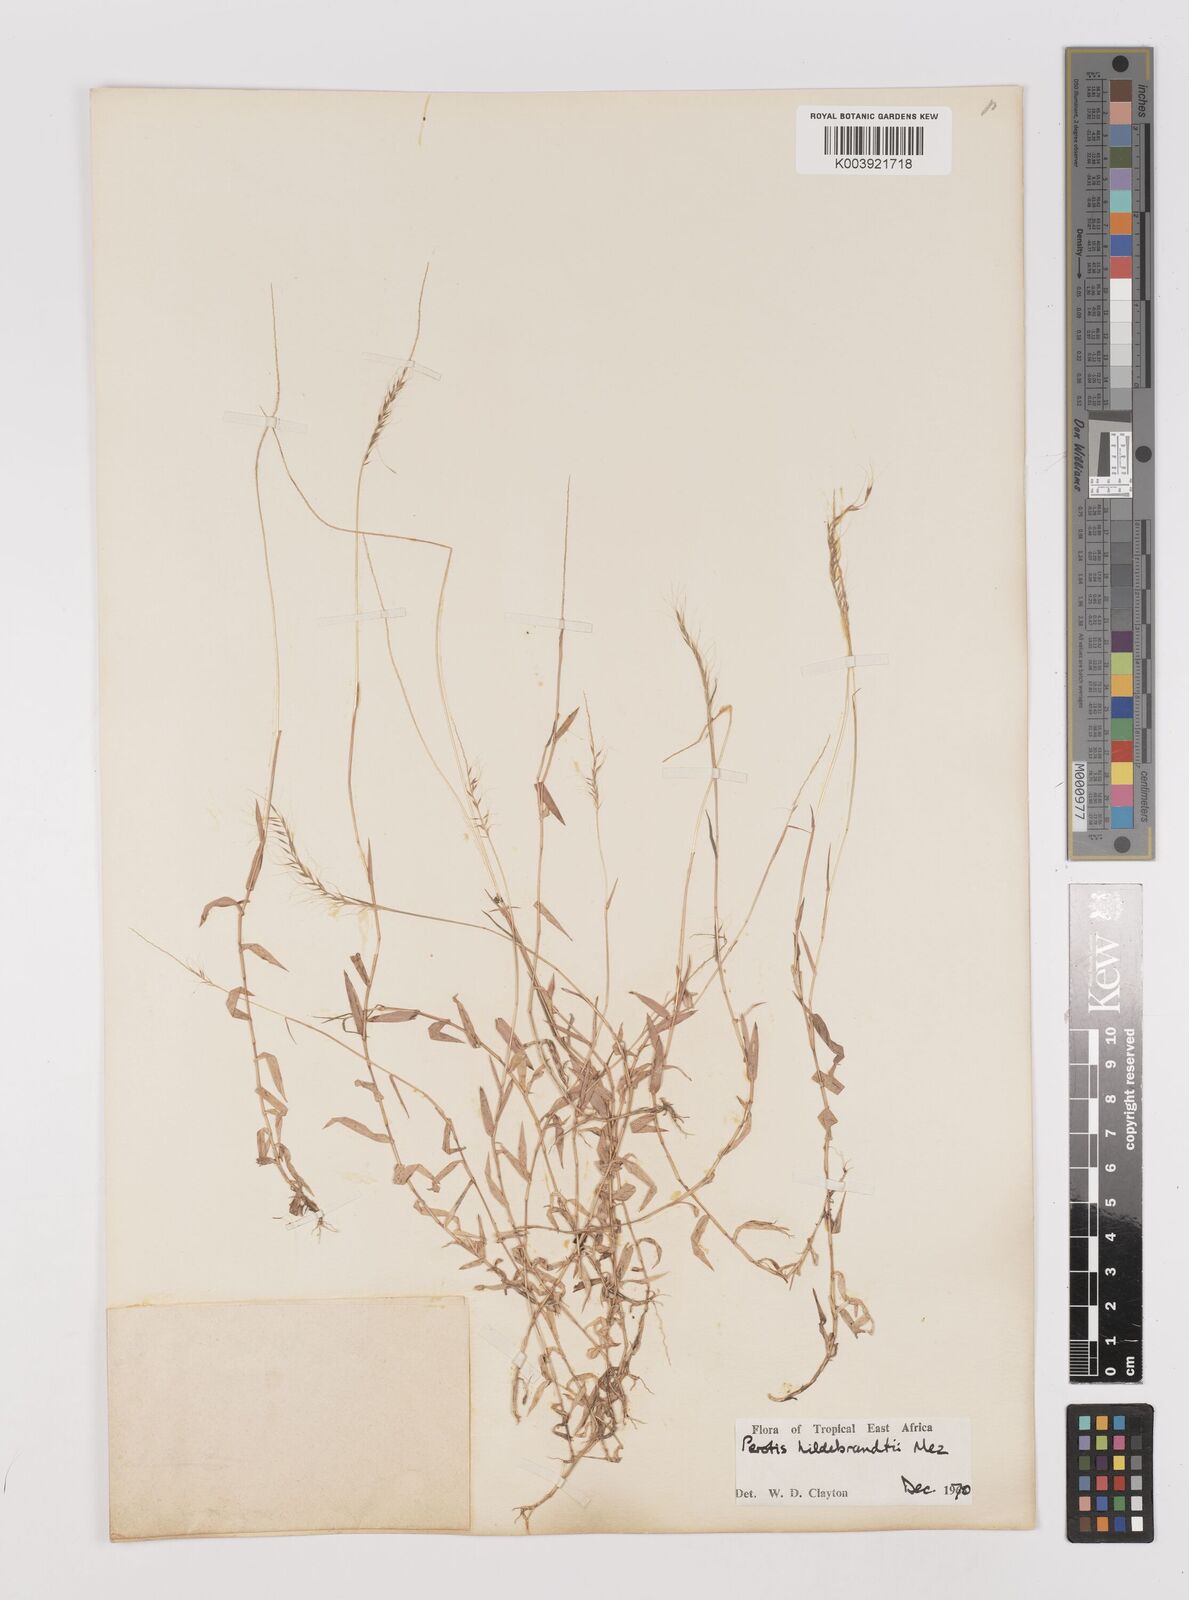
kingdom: Plantae
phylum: Tracheophyta
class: Liliopsida
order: Poales
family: Poaceae
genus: Perotis
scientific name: Perotis hildebrandtii
